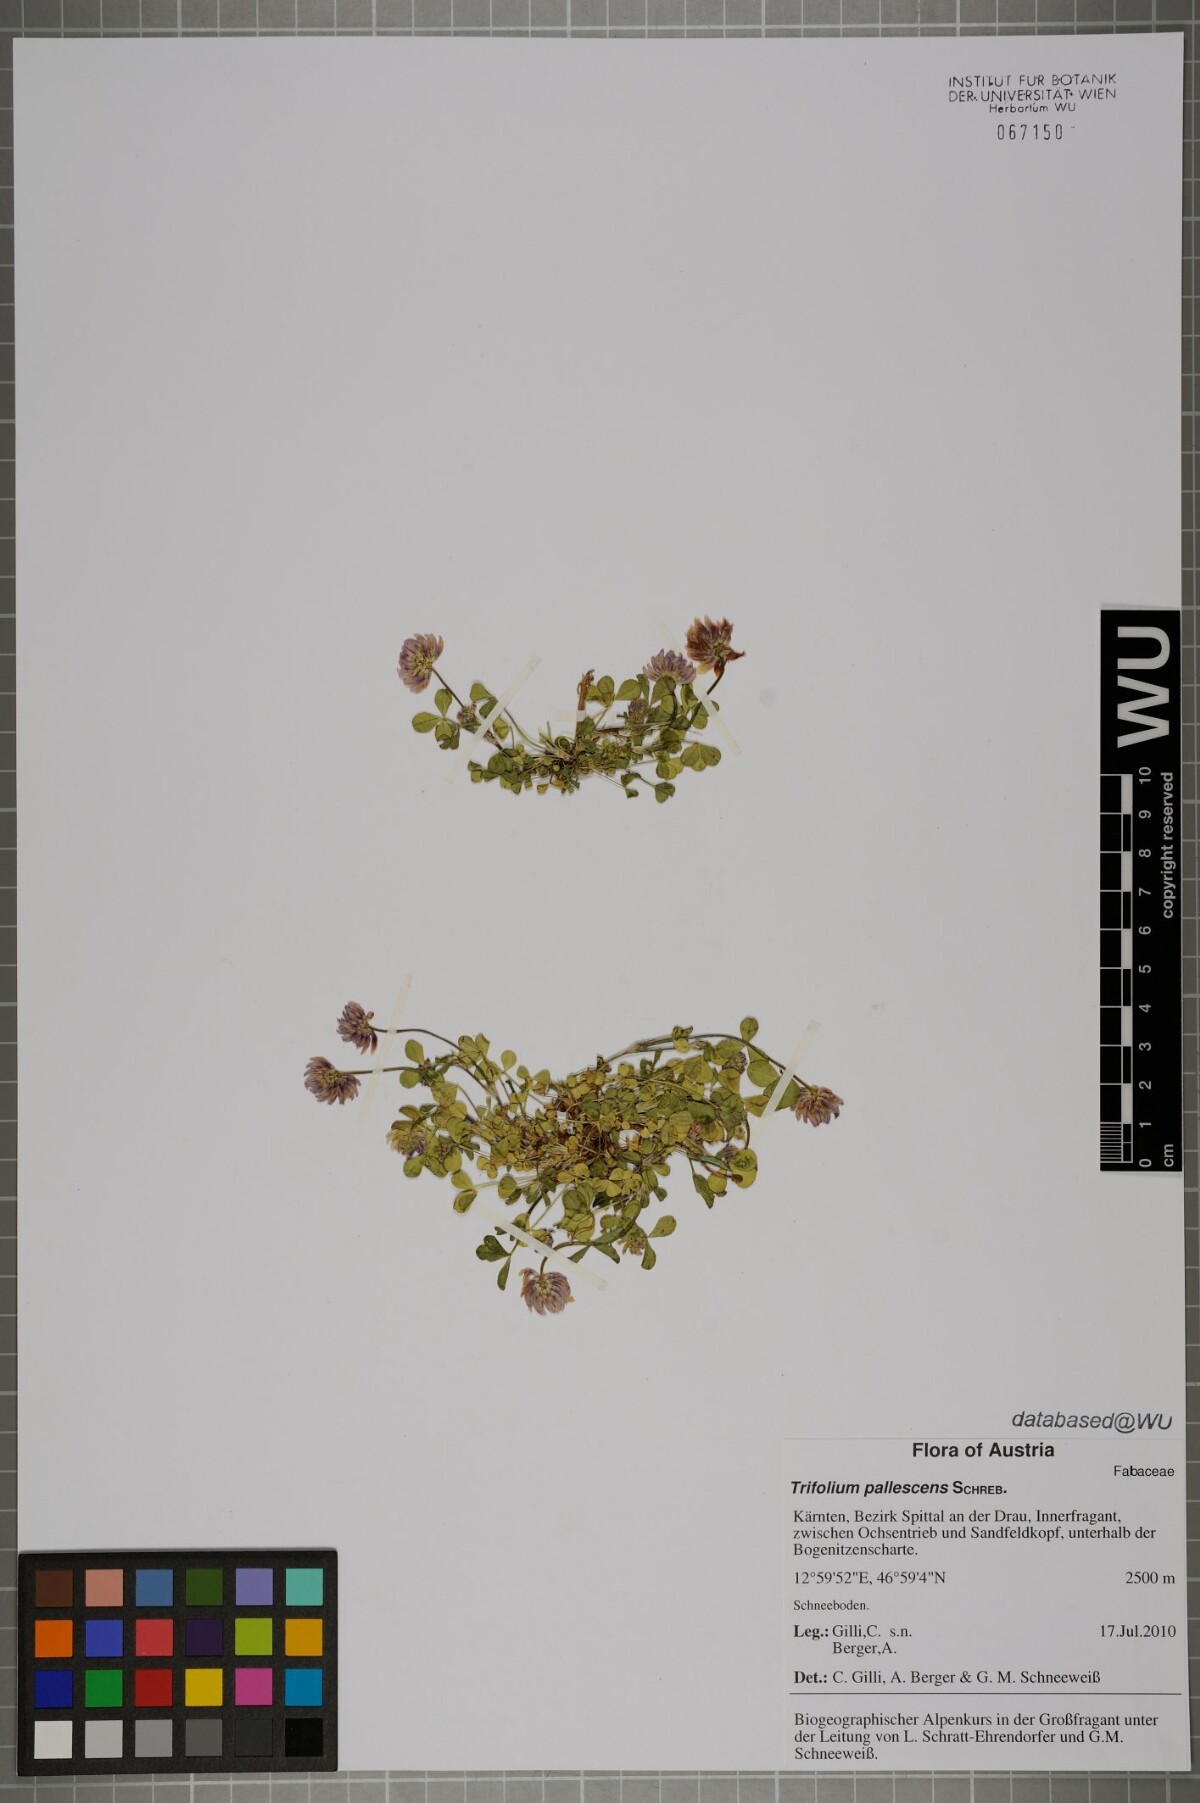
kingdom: Plantae
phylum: Tracheophyta
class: Magnoliopsida
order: Fabales
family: Fabaceae
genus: Trifolium
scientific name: Trifolium pallescens
